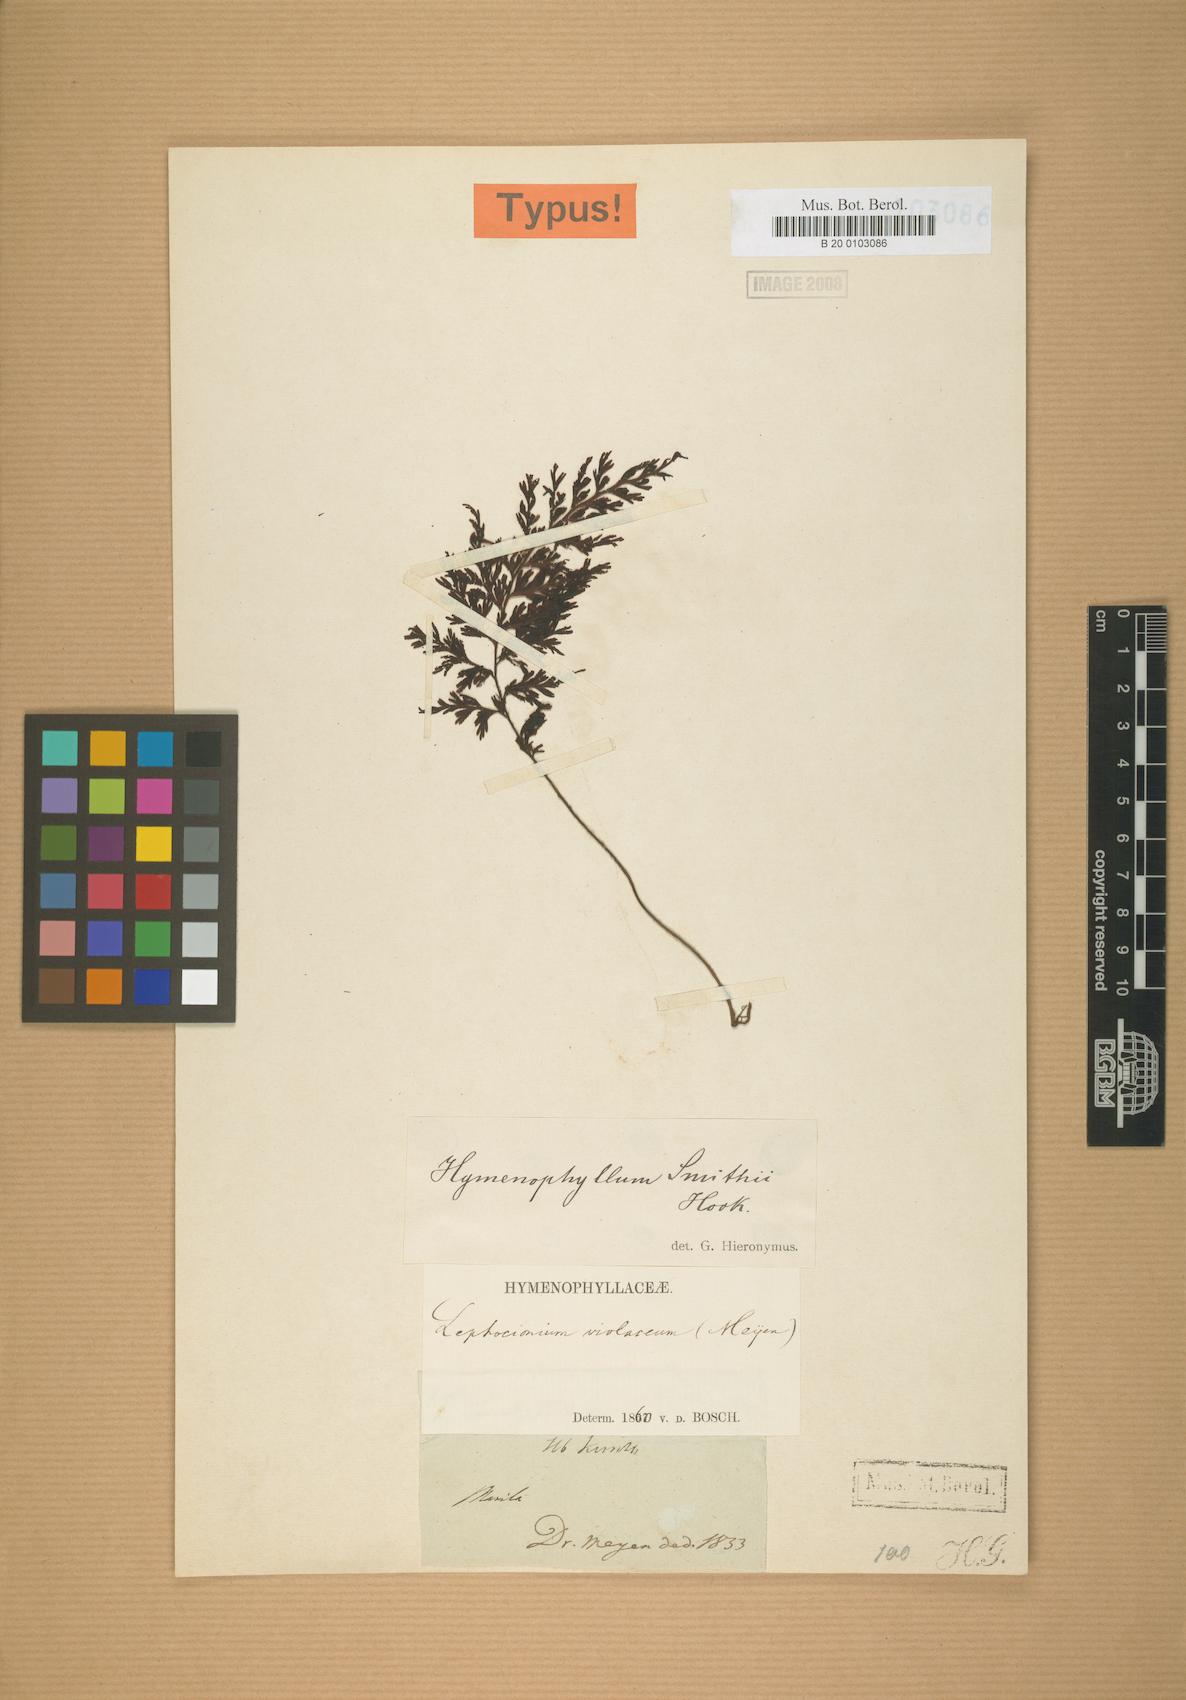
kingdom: Plantae
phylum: Tracheophyta
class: Polypodiopsida
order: Hymenophyllales
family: Hymenophyllaceae
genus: Hymenophyllum
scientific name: Hymenophyllum violaceum
